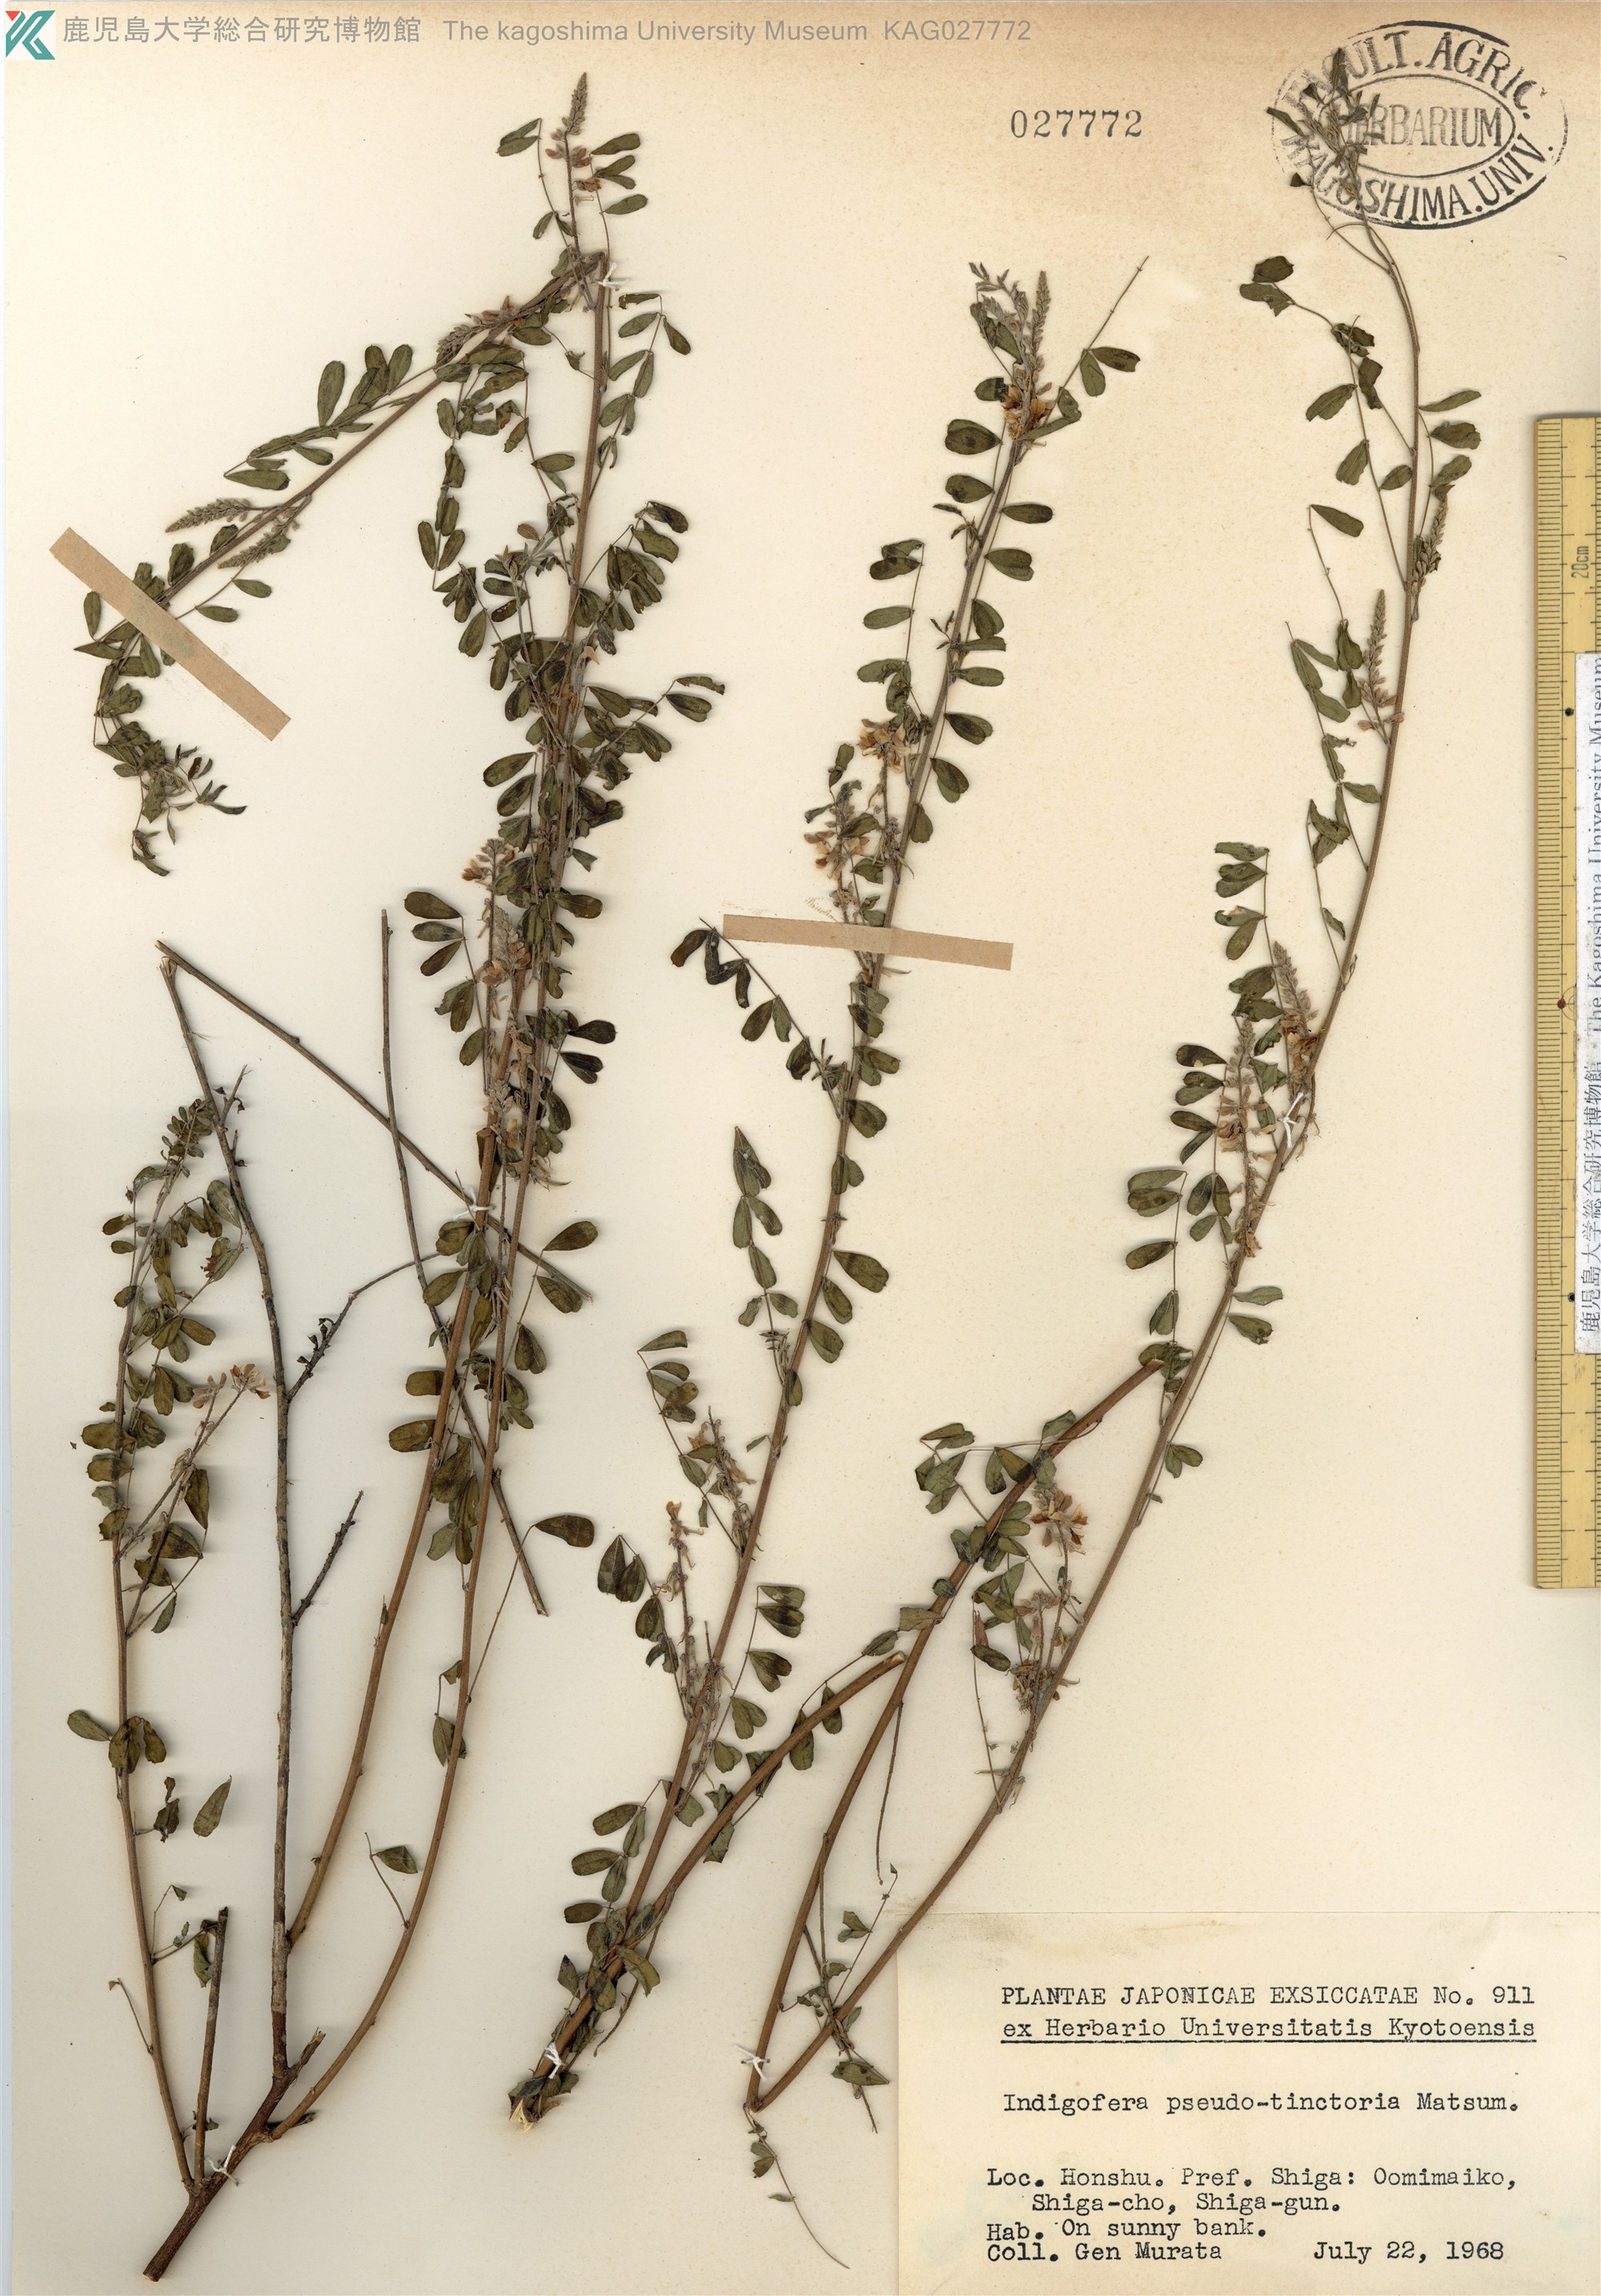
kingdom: Plantae
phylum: Tracheophyta
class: Magnoliopsida
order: Fabales
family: Fabaceae
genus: Indigofera
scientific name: Indigofera bungeana
